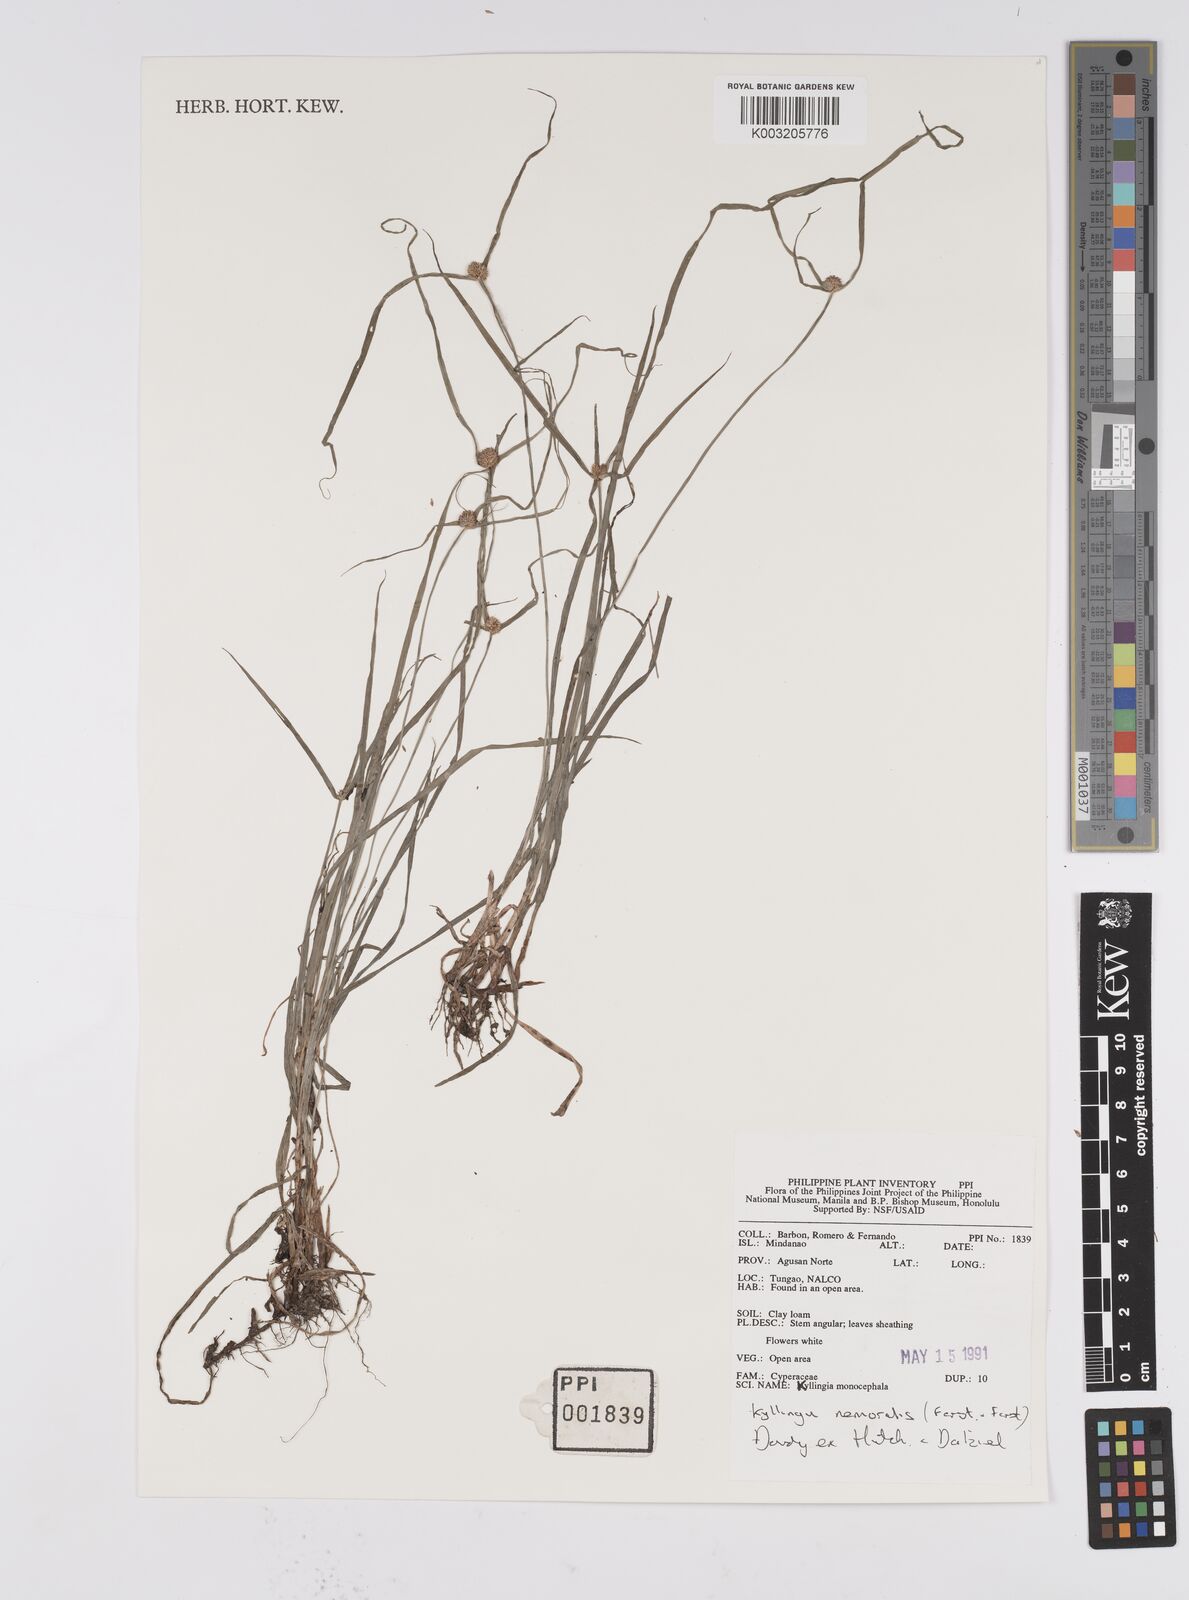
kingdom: Plantae
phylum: Tracheophyta
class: Liliopsida
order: Poales
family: Cyperaceae
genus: Cyperus
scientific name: Cyperus nemoralis
